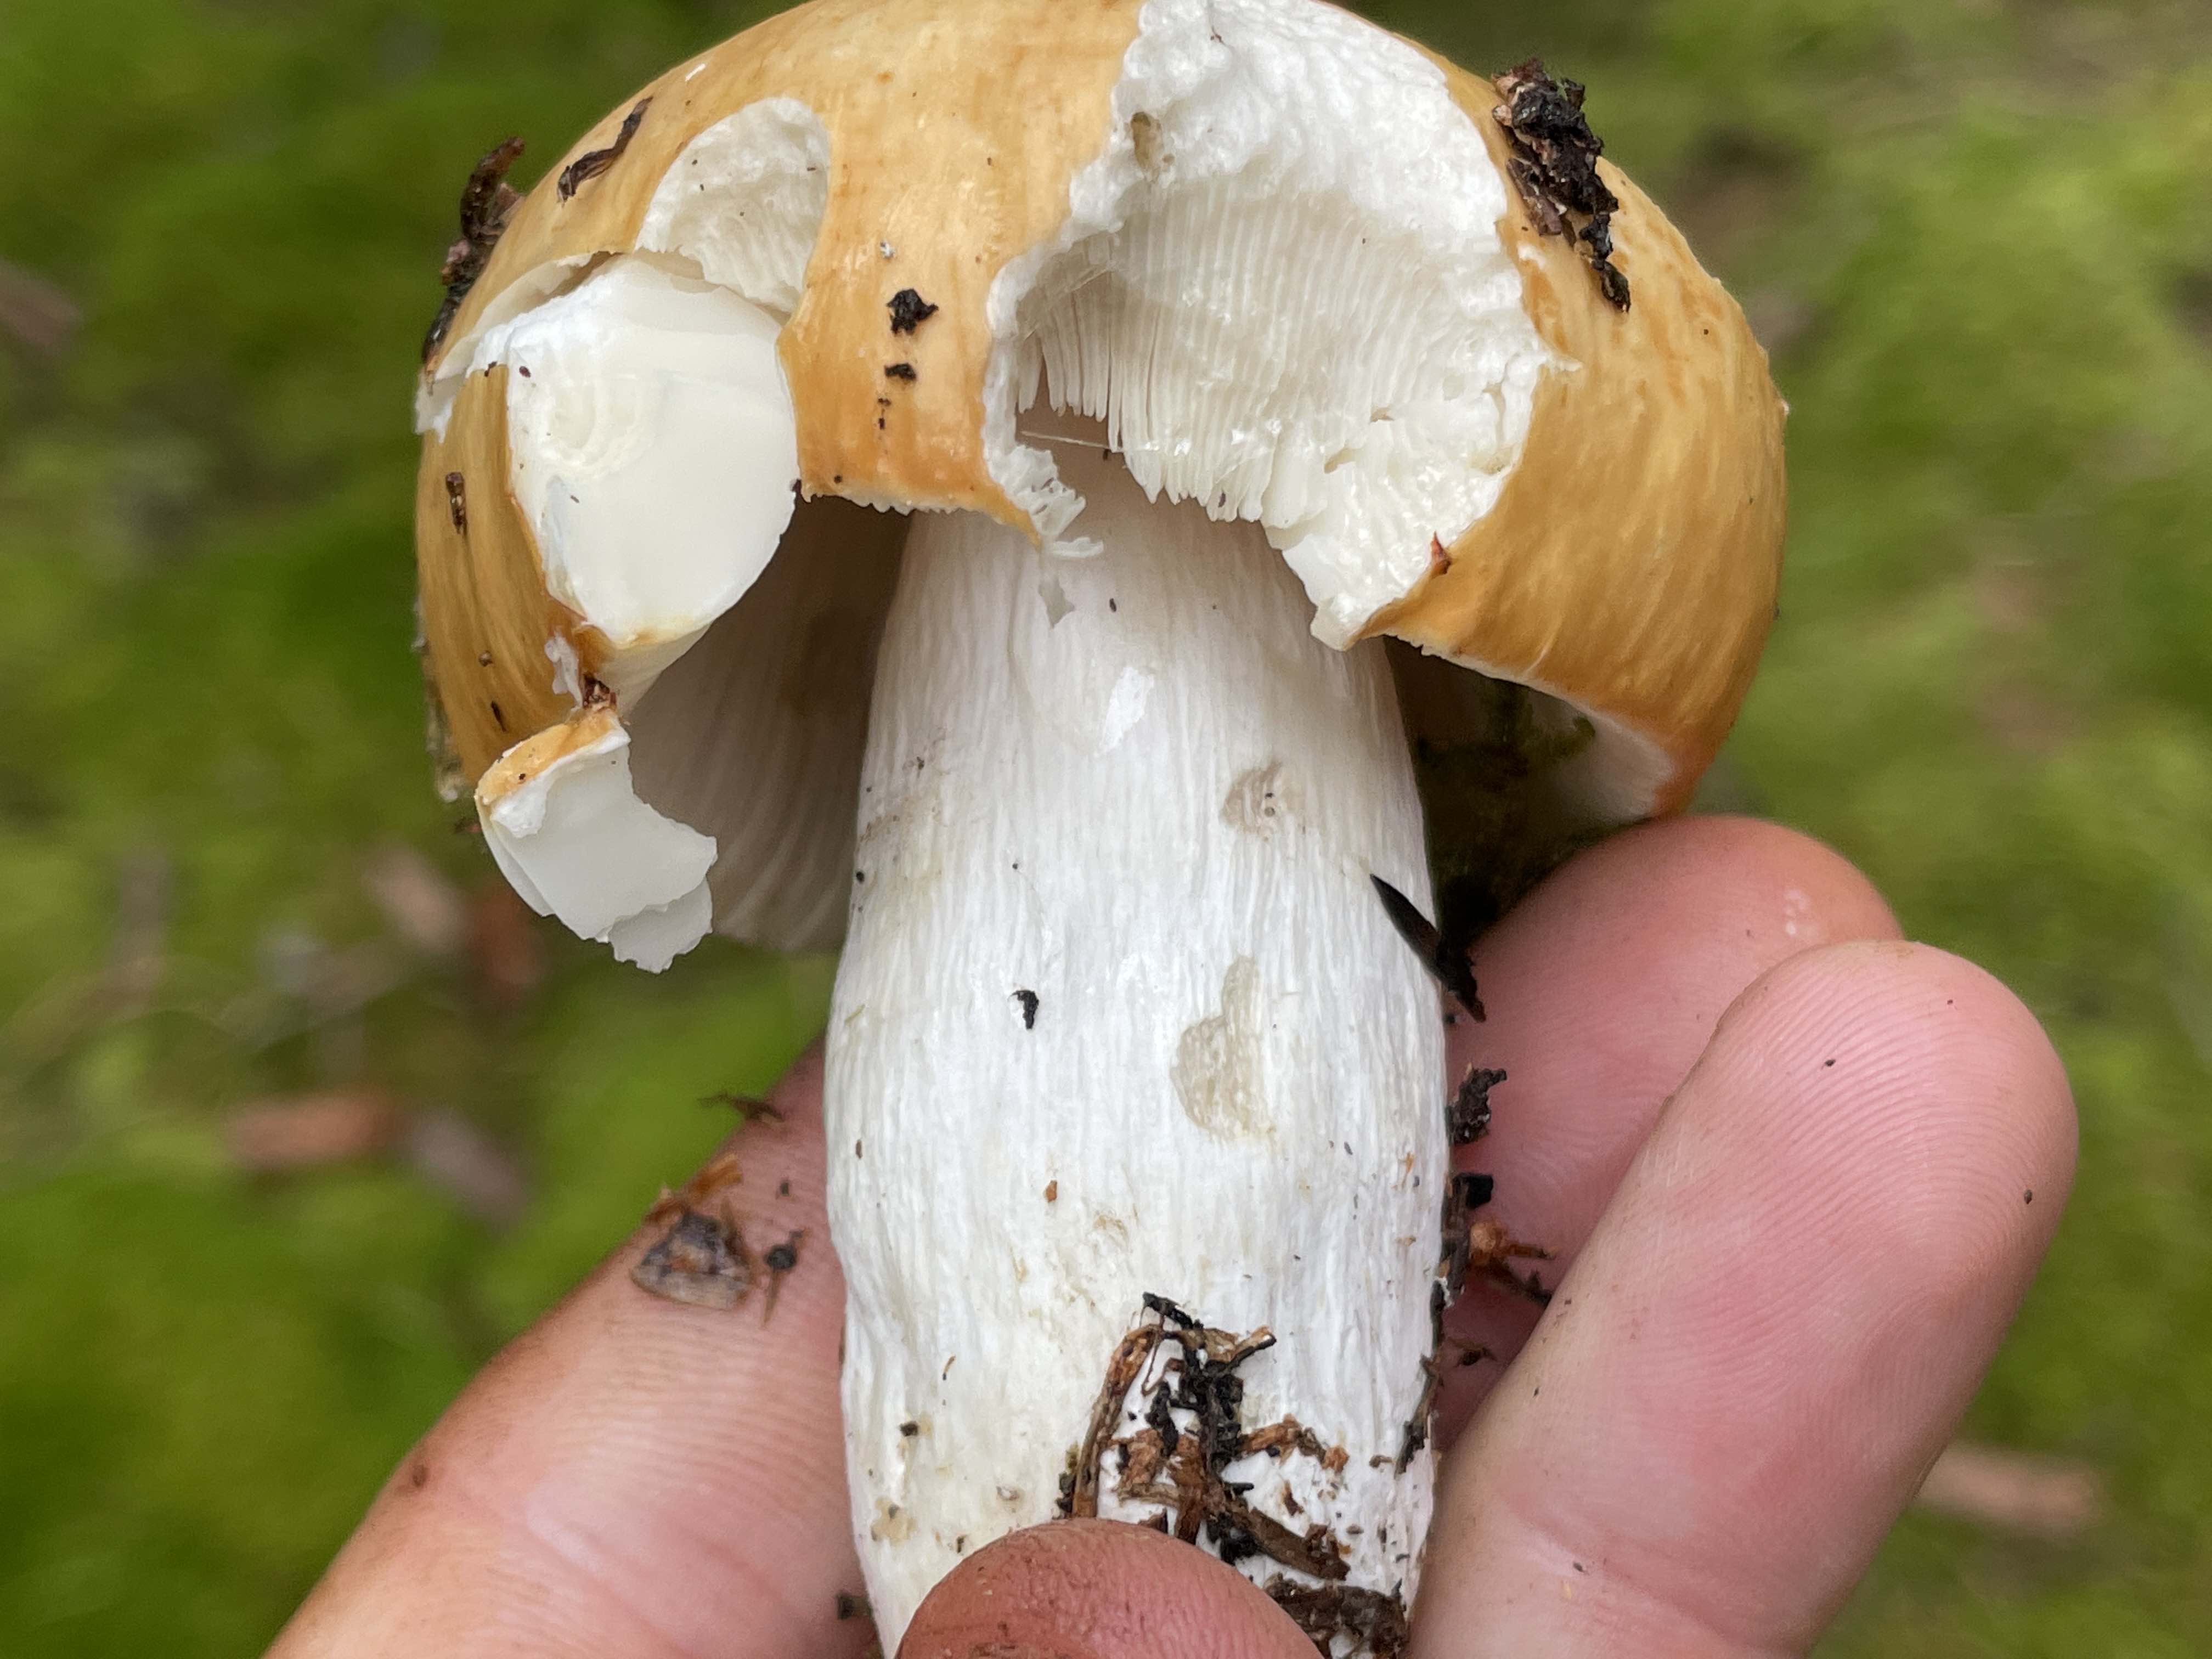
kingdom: Fungi
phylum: Basidiomycota
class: Agaricomycetes
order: Russulales
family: Russulaceae
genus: Russula
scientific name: Russula decolorans
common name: afblegende skørhat
